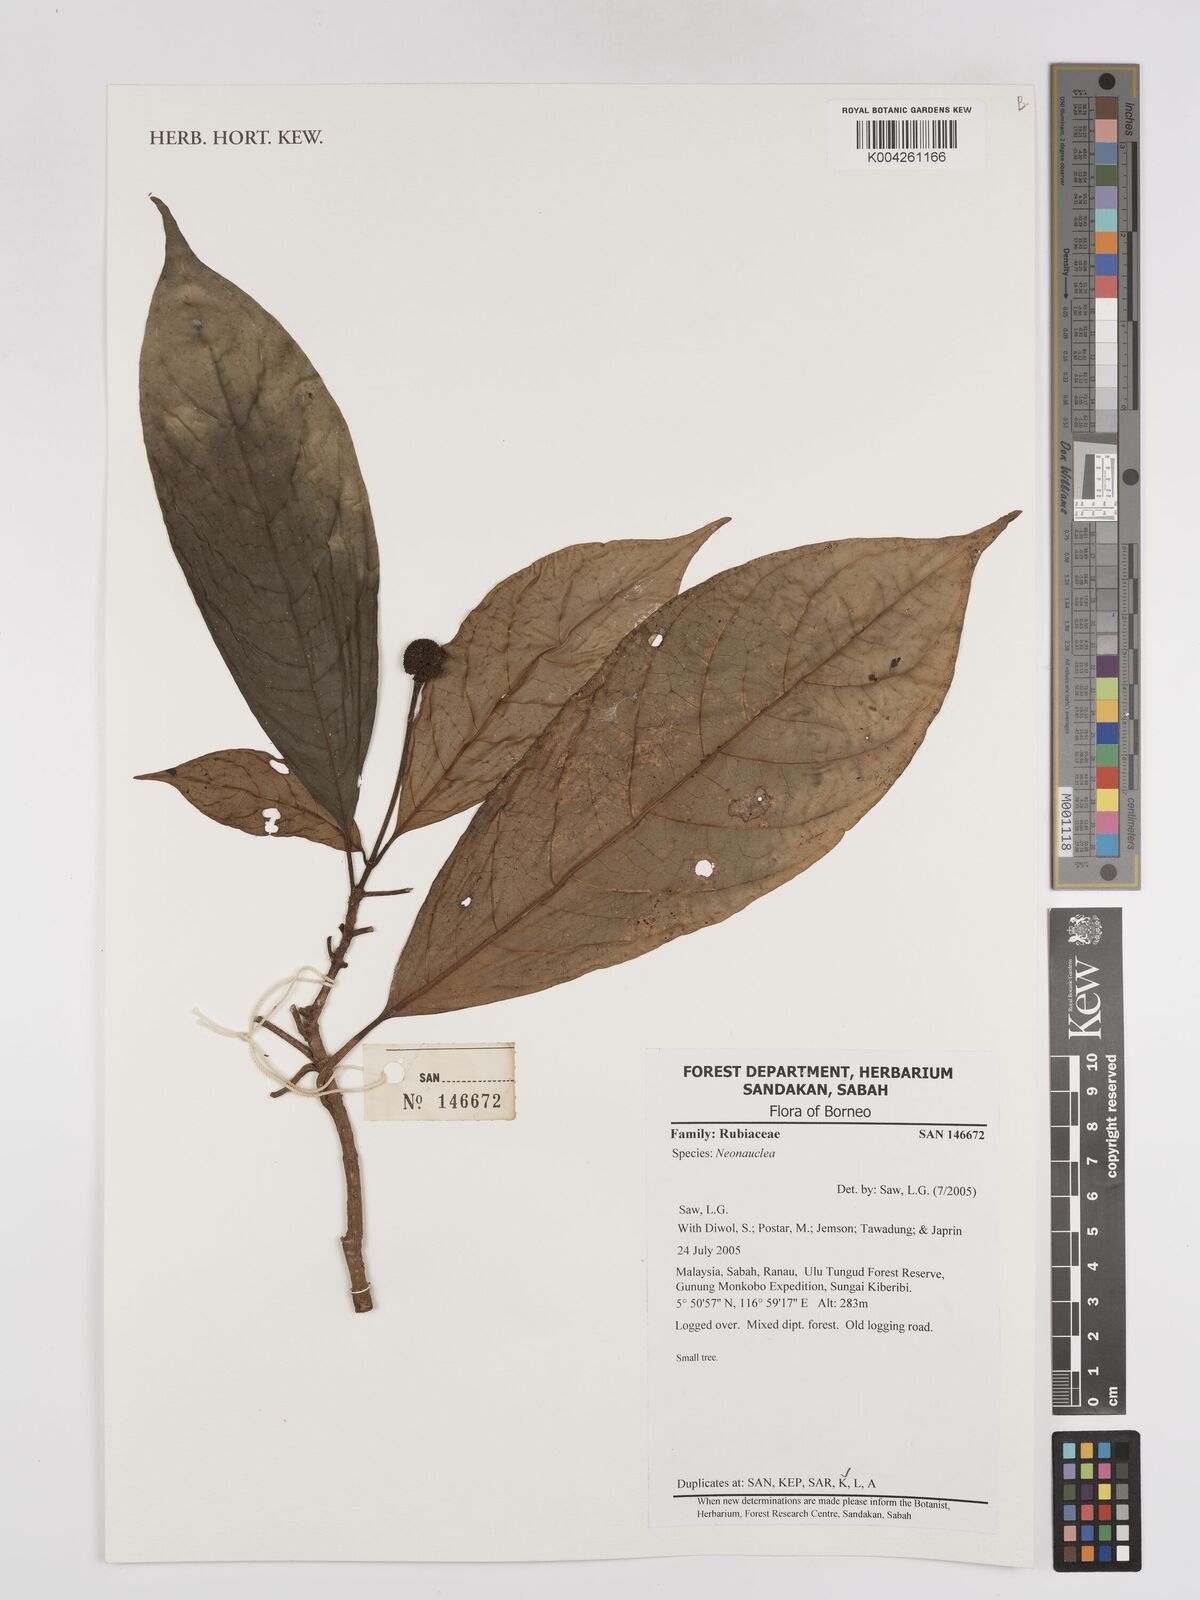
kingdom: Plantae
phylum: Tracheophyta
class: Magnoliopsida
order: Gentianales
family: Rubiaceae
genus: Neonauclea
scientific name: Neonauclea
